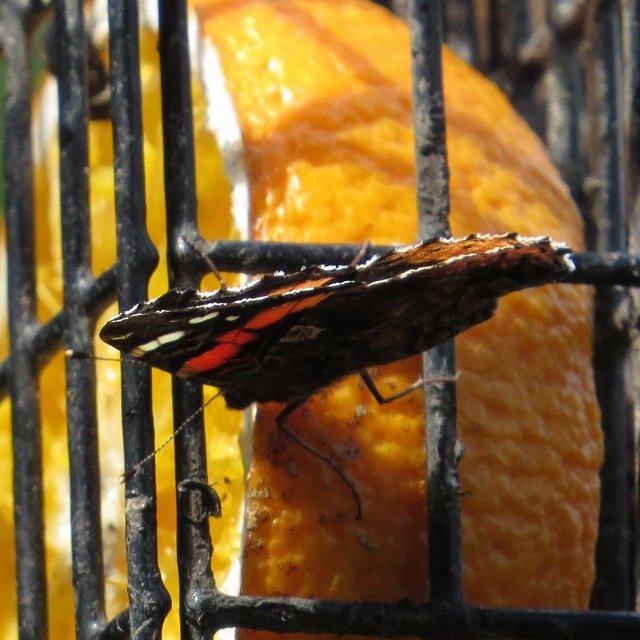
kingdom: Animalia
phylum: Arthropoda
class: Insecta
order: Lepidoptera
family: Nymphalidae
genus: Vanessa
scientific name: Vanessa atalanta
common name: Red Admiral
